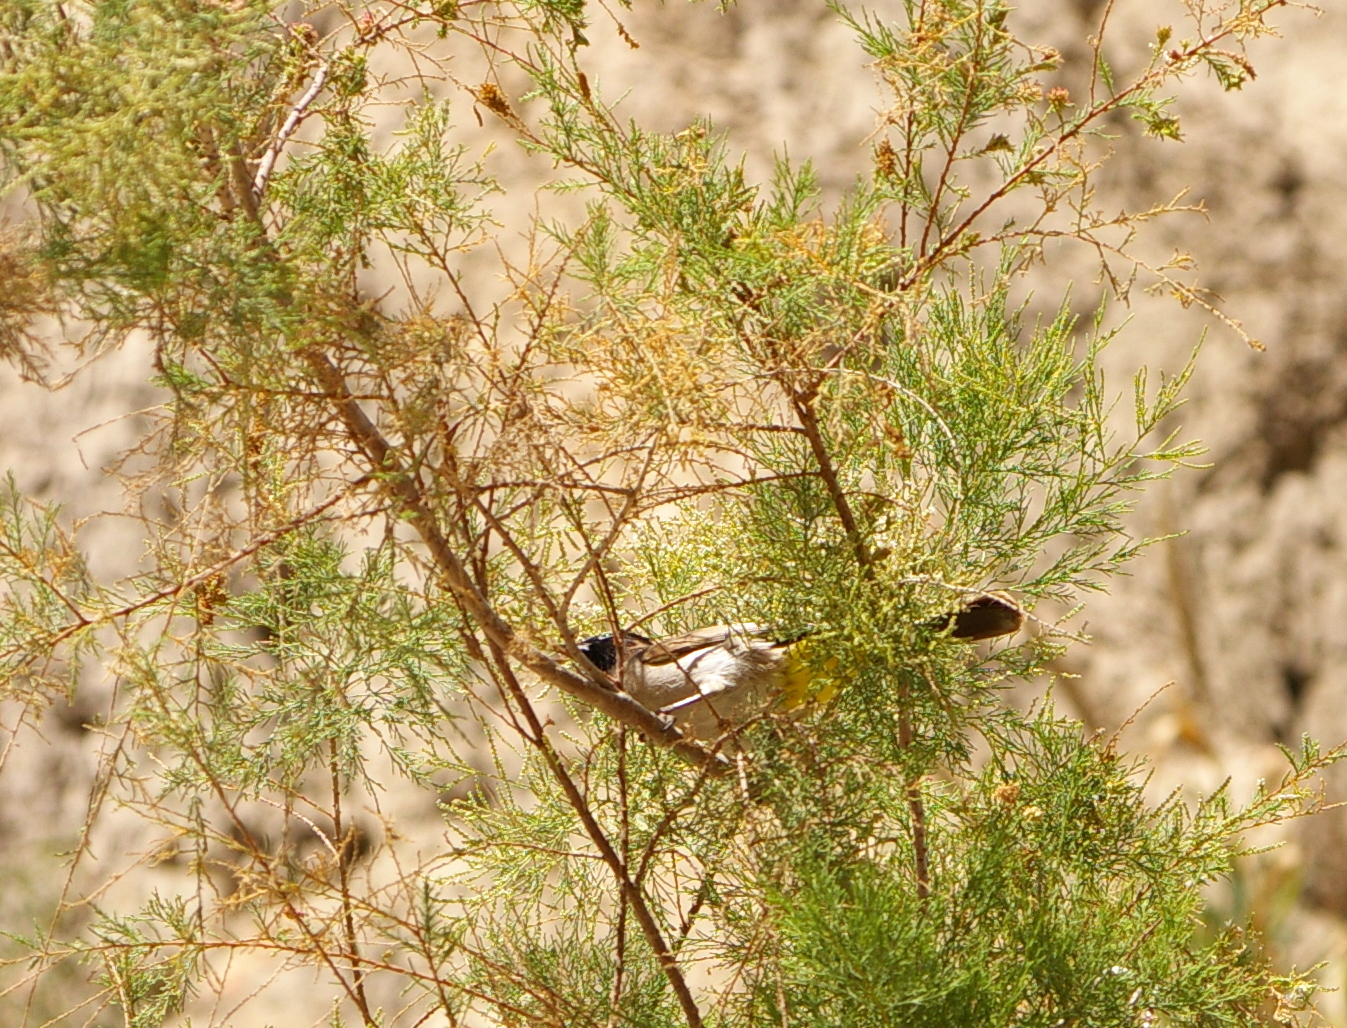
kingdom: Animalia
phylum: Chordata
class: Aves
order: Passeriformes
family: Pycnonotidae
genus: Pycnonotus
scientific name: Pycnonotus xanthopygos
